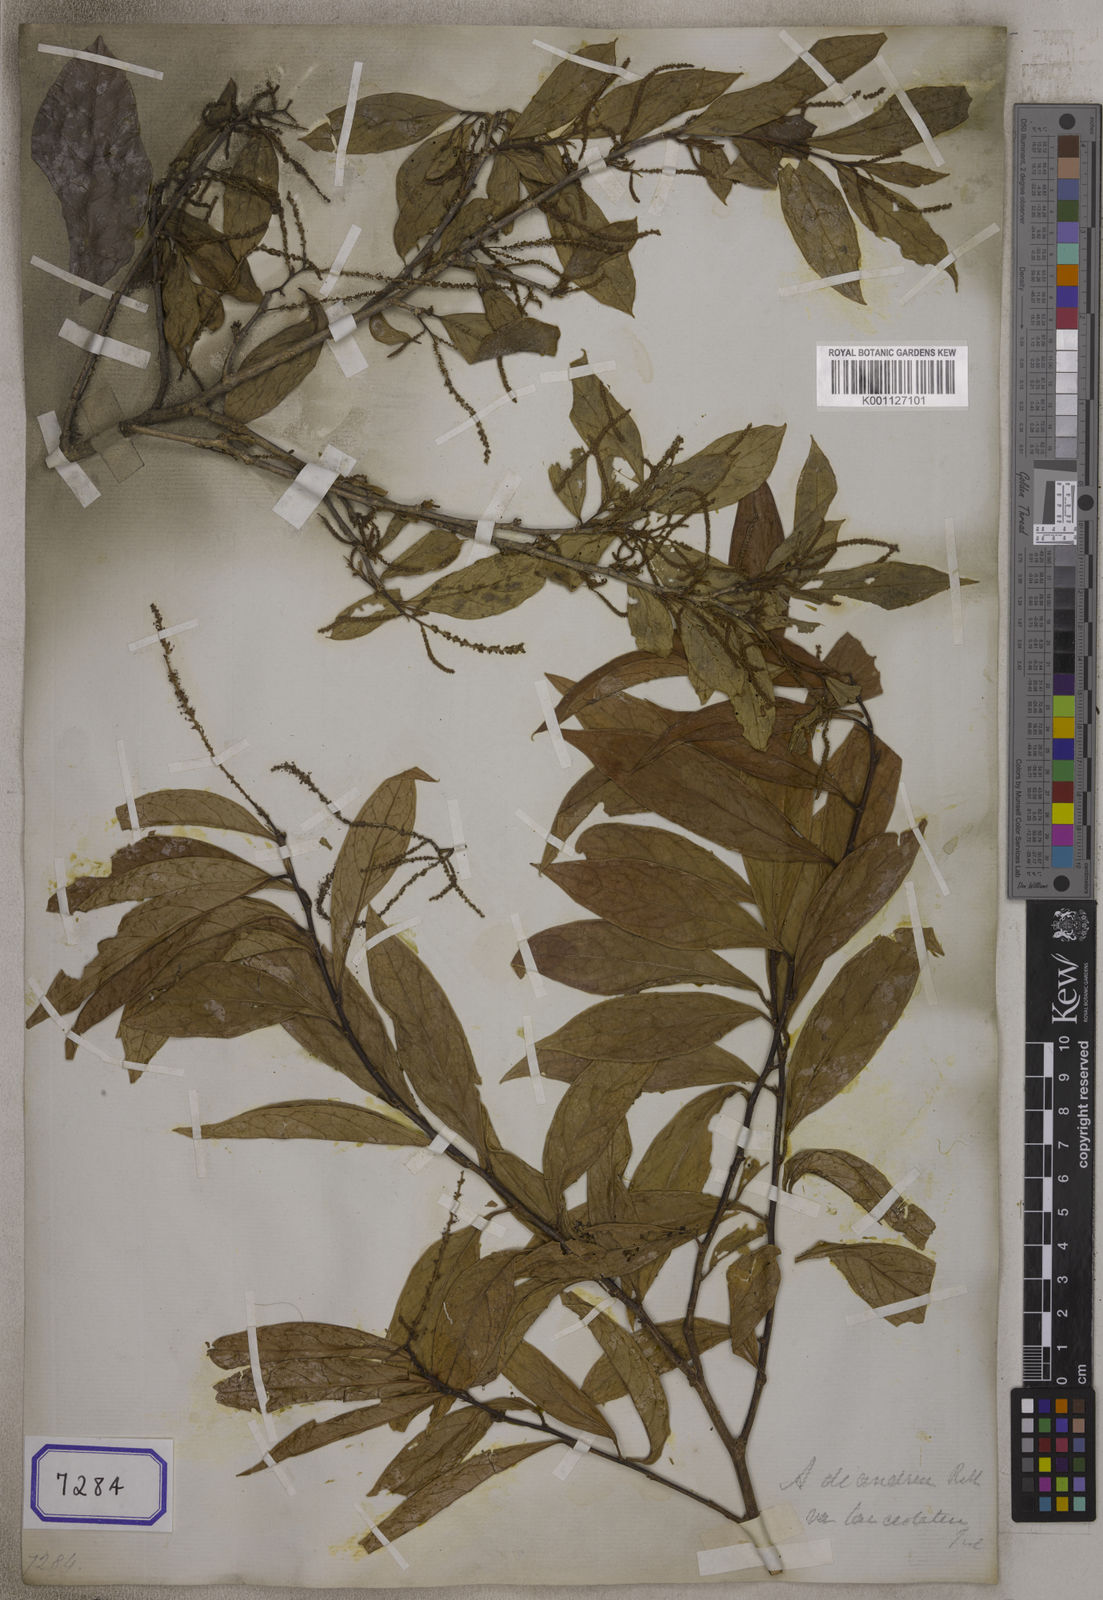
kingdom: Plantae
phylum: Tracheophyta
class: Magnoliopsida
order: Malpighiales
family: Phyllanthaceae
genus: Antidesma
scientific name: Antidesma acidum
